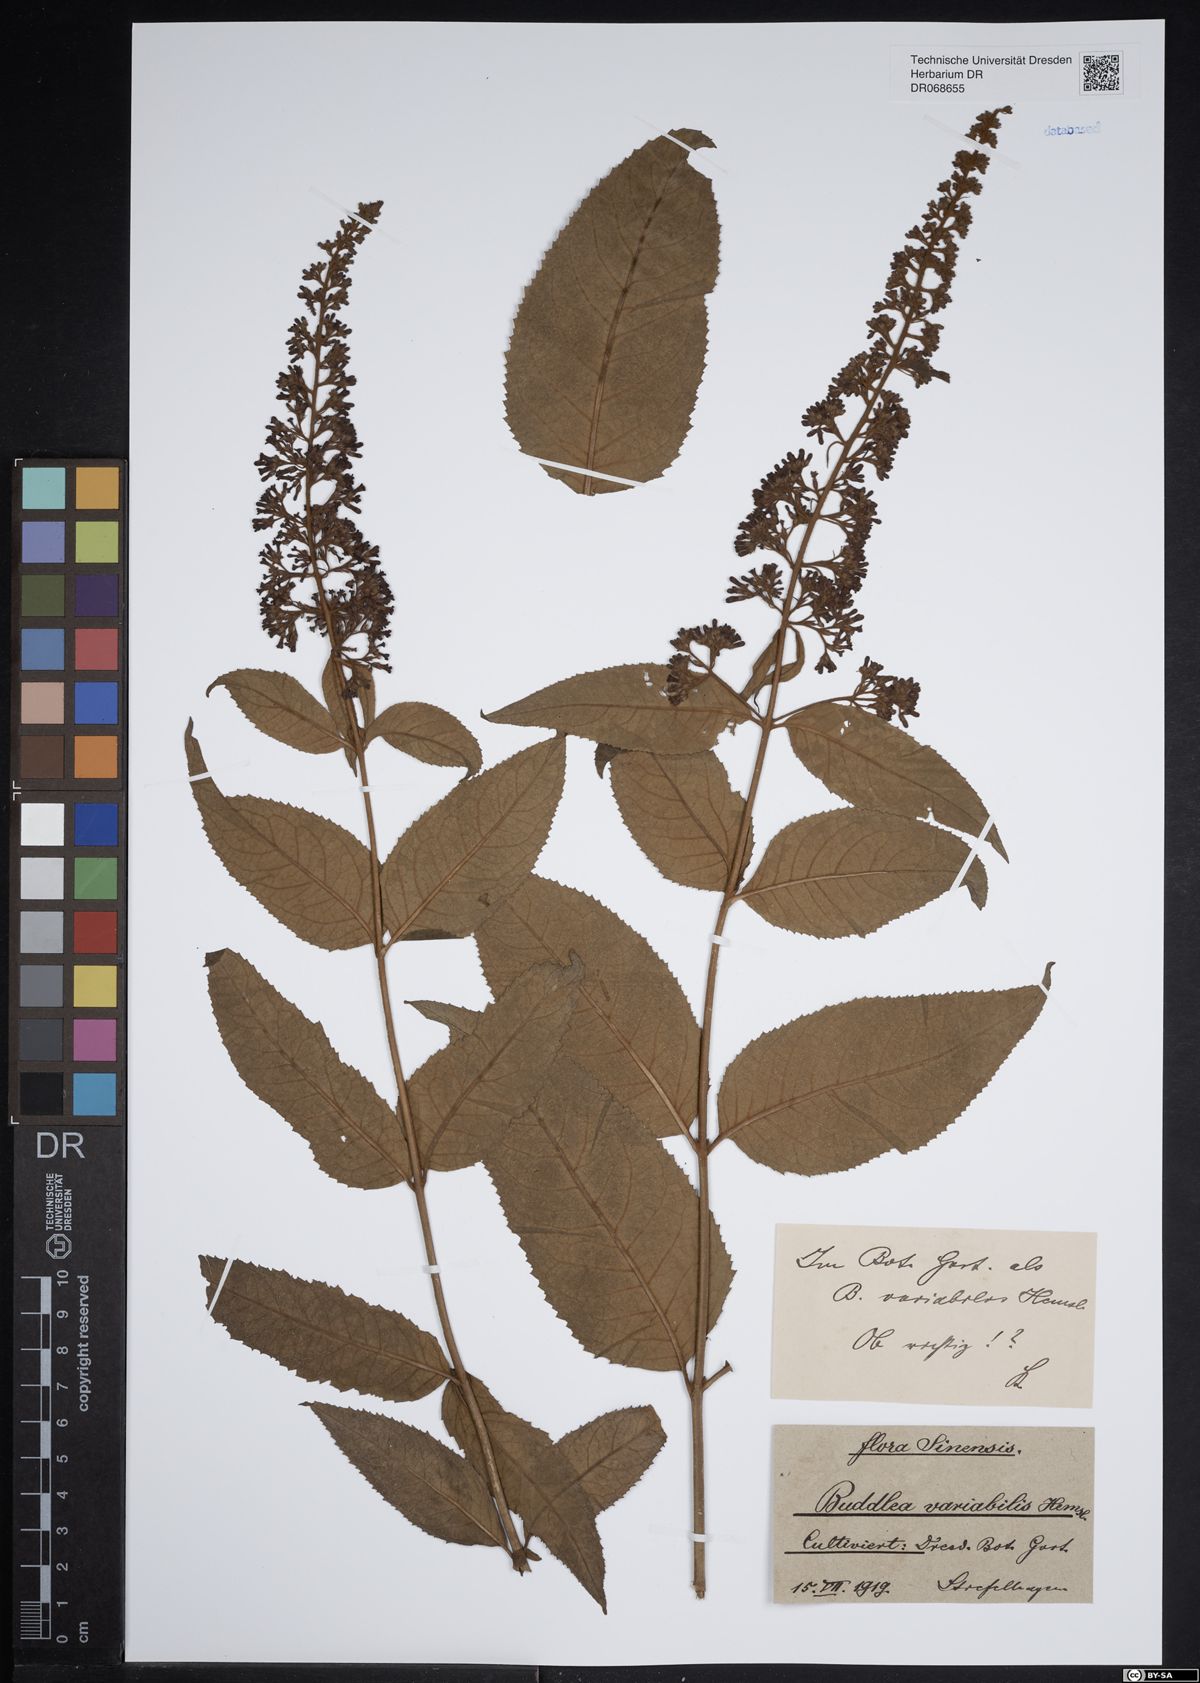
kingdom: Plantae
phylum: Tracheophyta
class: Magnoliopsida
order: Lamiales
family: Scrophulariaceae
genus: Buddleja
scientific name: Buddleja davidii
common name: Butterfly-bush
